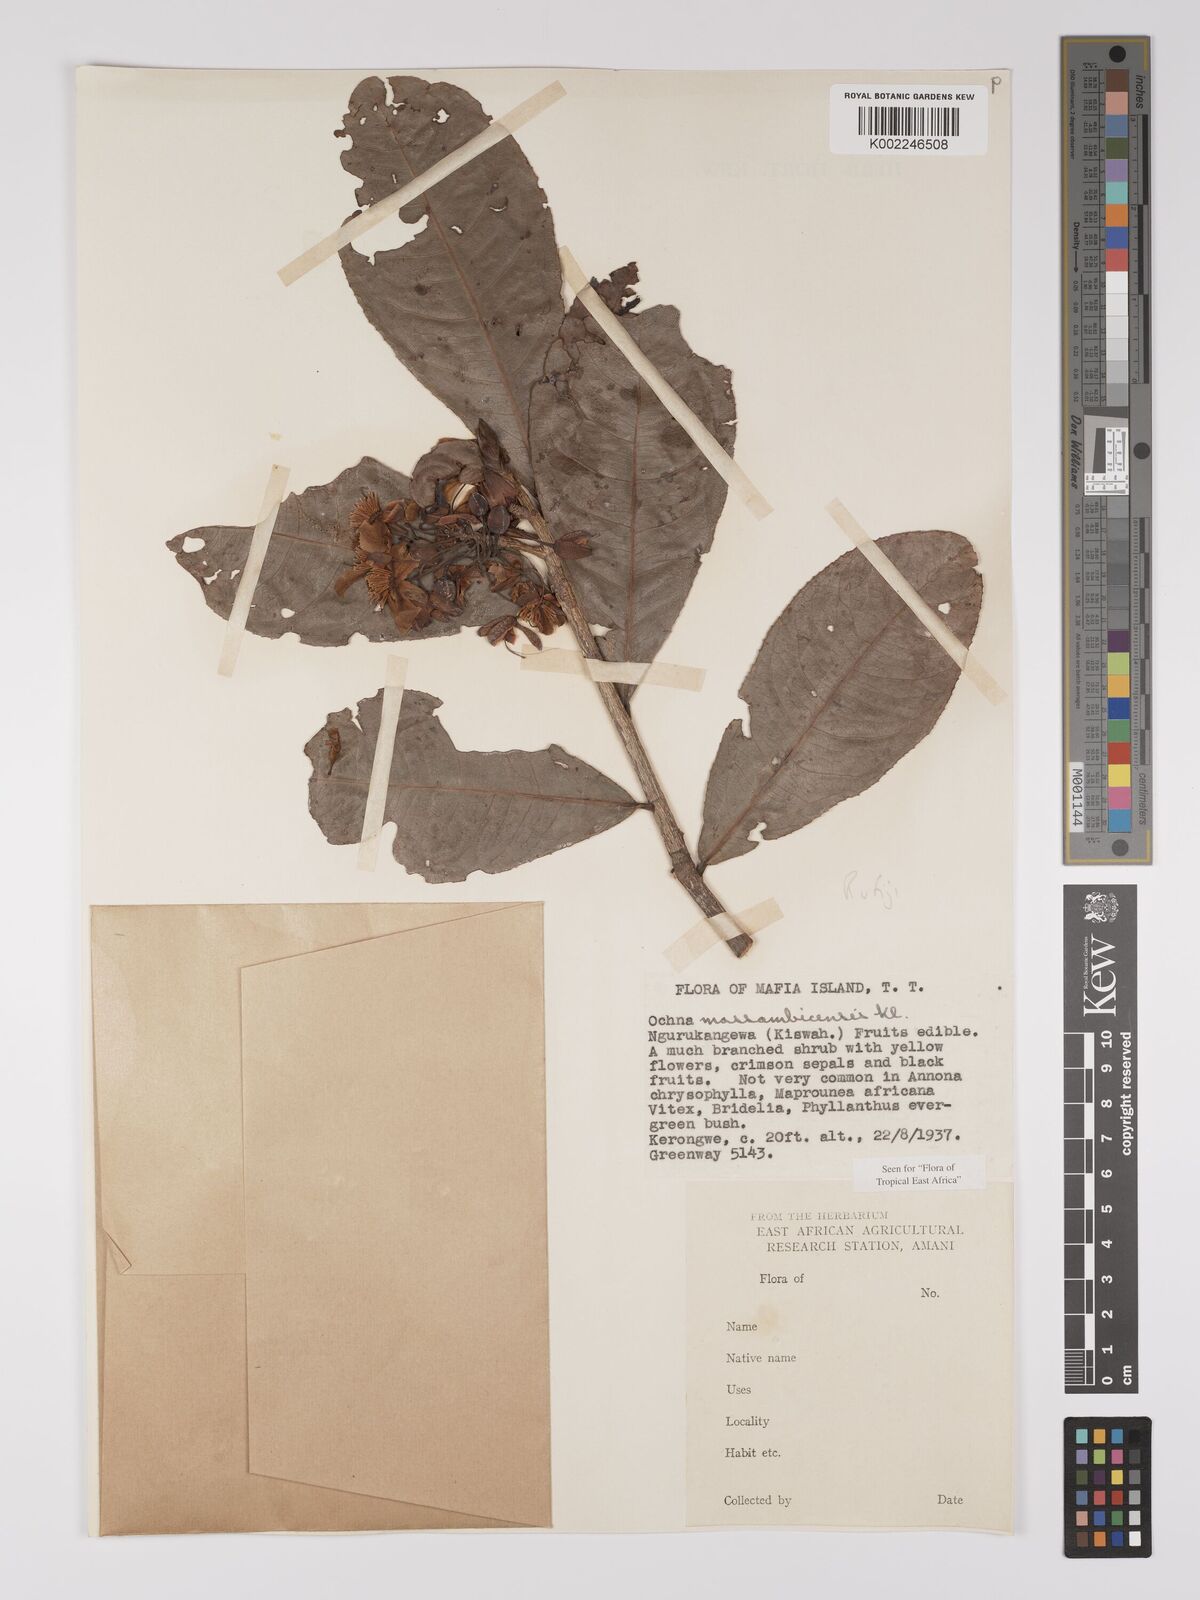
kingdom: Plantae
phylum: Tracheophyta
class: Magnoliopsida
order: Malpighiales
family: Ochnaceae
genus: Ochna
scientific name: Ochna atropurpurea
